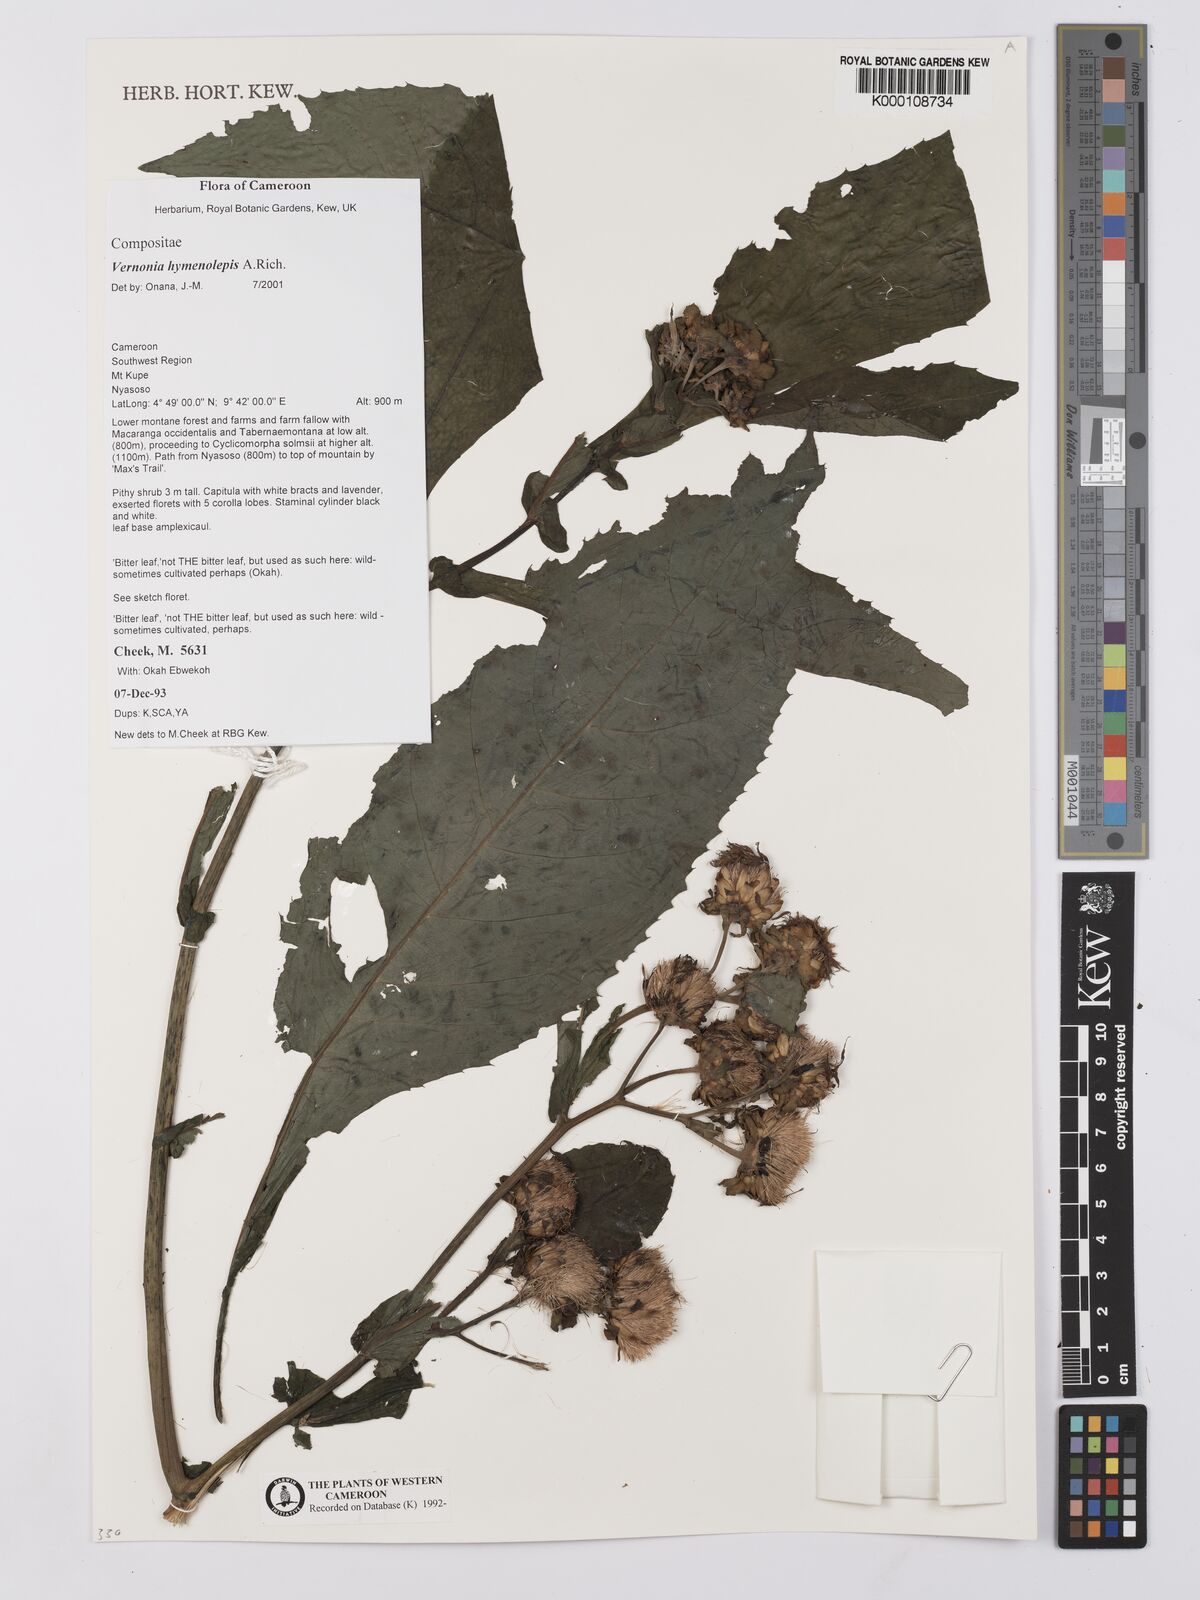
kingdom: Plantae
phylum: Tracheophyta
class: Magnoliopsida
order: Asterales
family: Asteraceae
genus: Baccharoides
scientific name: Baccharoides hymenolepis
